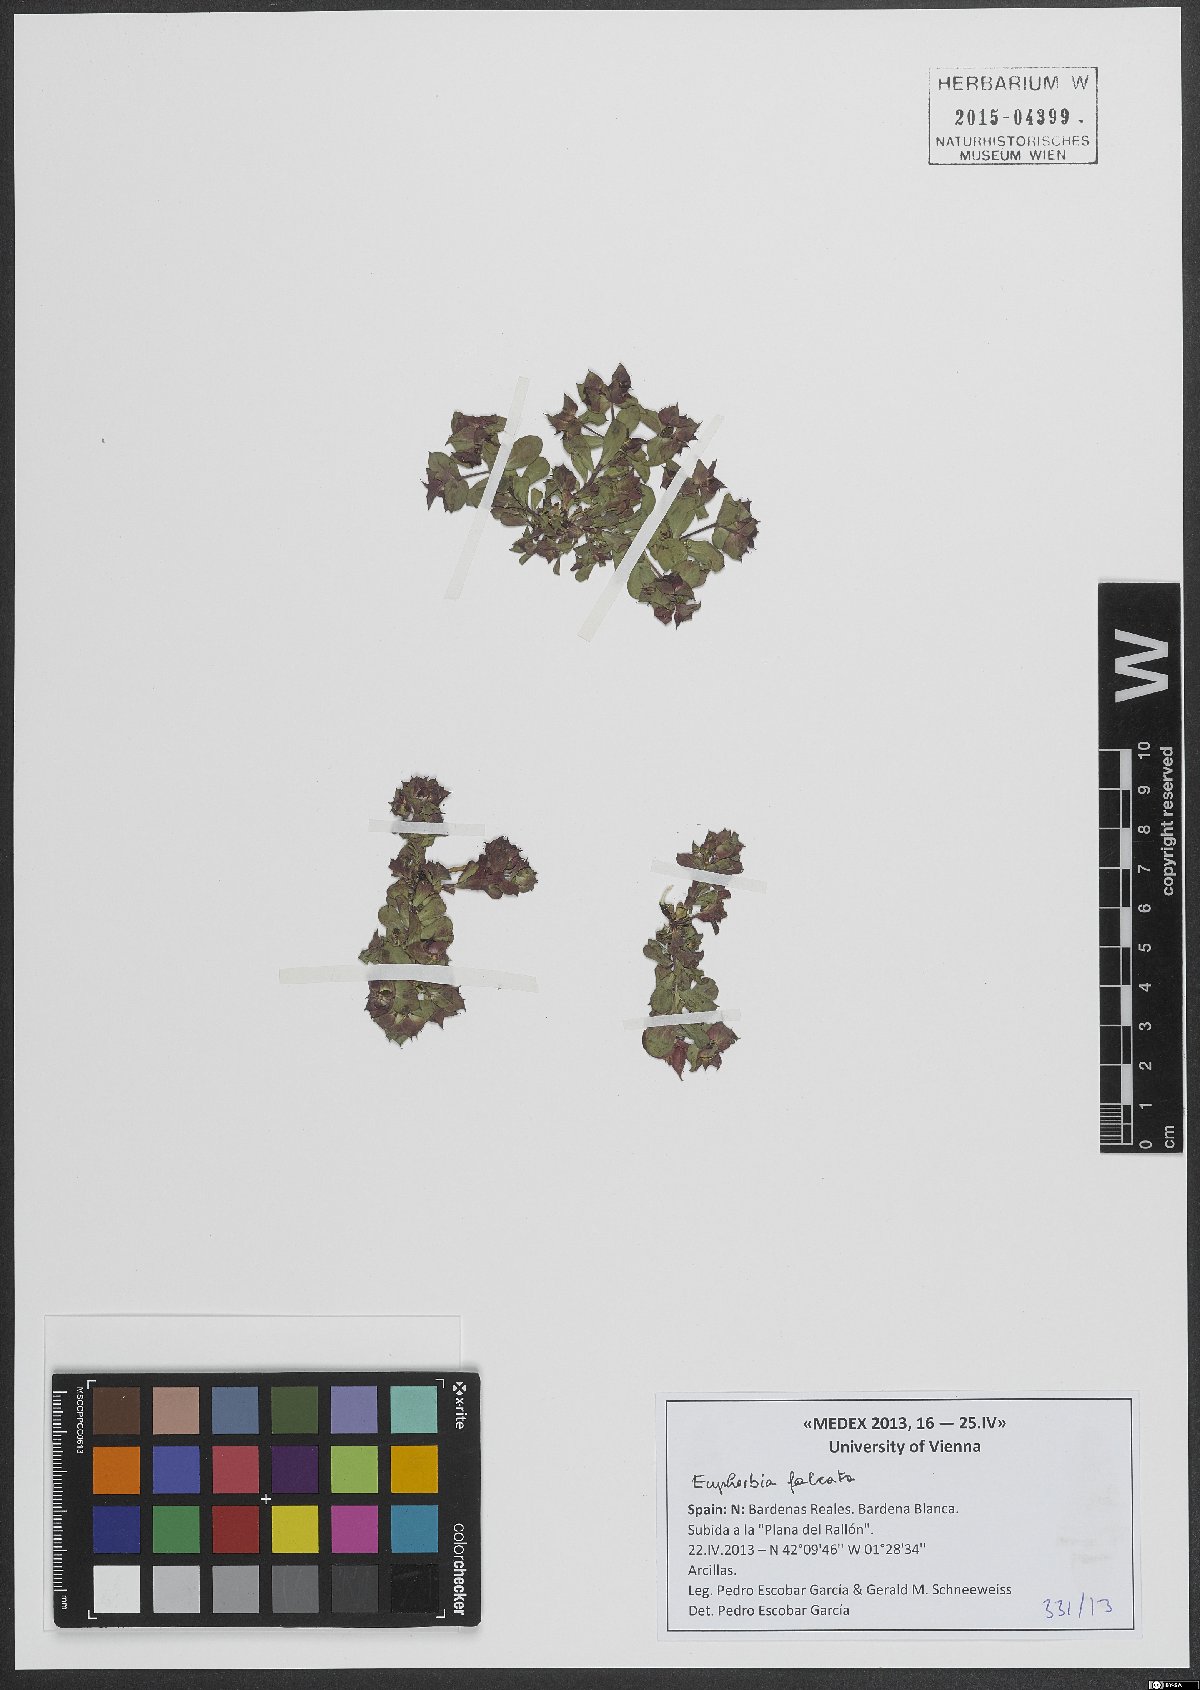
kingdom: Plantae
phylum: Tracheophyta
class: Magnoliopsida
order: Malpighiales
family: Euphorbiaceae
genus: Euphorbia
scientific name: Euphorbia falcata
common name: Sickle spurge
